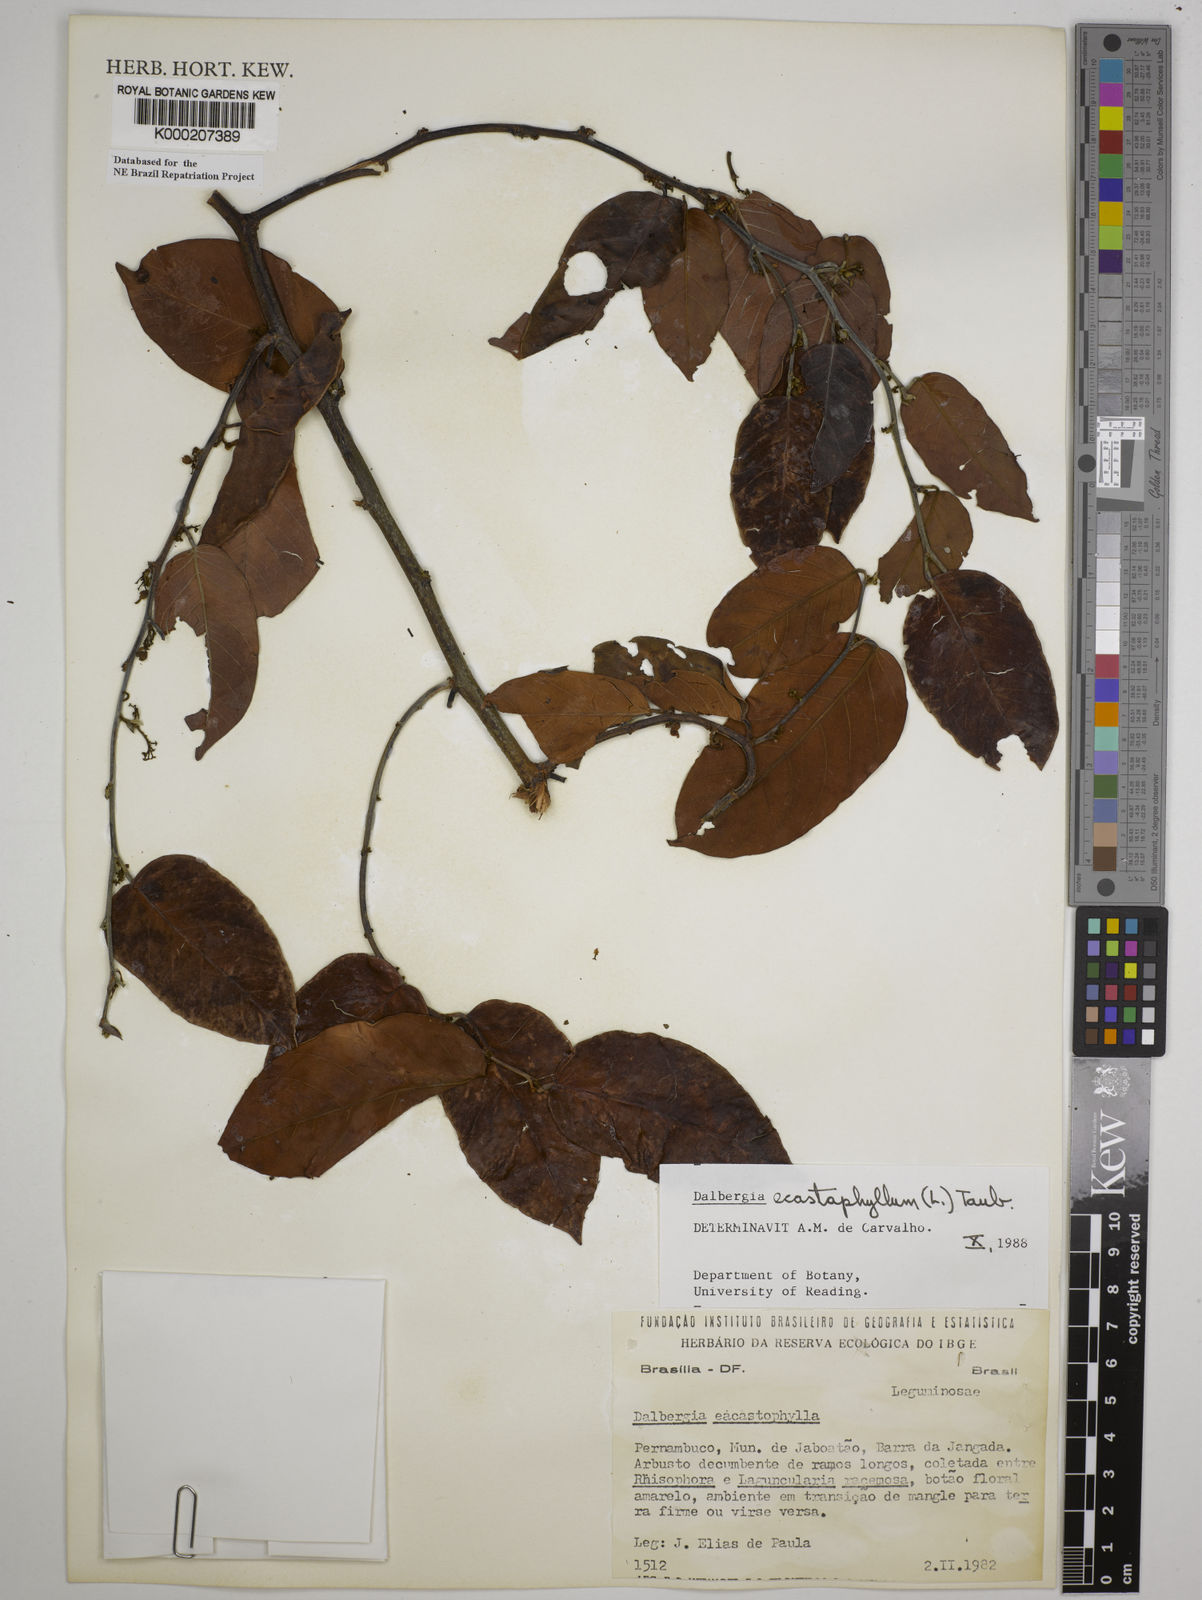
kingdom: Plantae
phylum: Tracheophyta
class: Magnoliopsida
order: Fabales
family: Fabaceae
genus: Dalbergia
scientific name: Dalbergia
